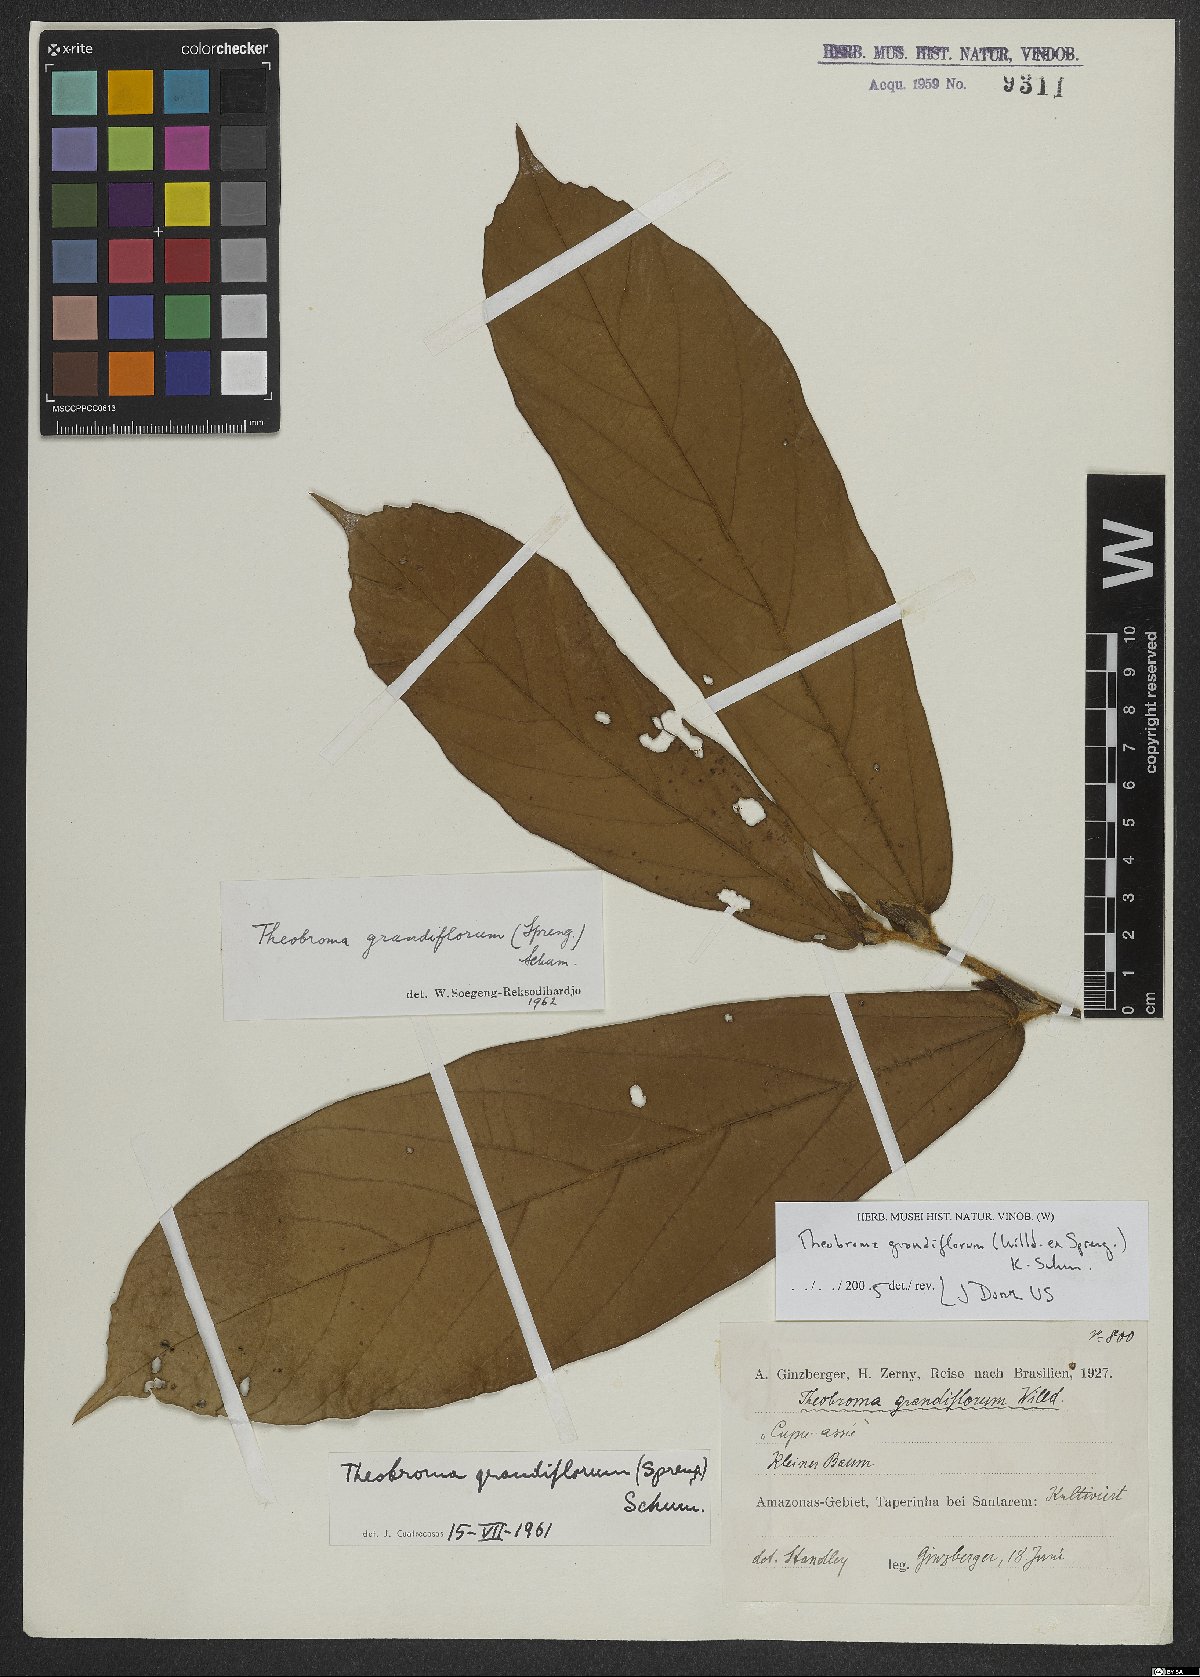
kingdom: Plantae
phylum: Tracheophyta
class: Magnoliopsida
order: Malvales
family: Malvaceae
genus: Theobroma
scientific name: Theobroma grandiflorum
